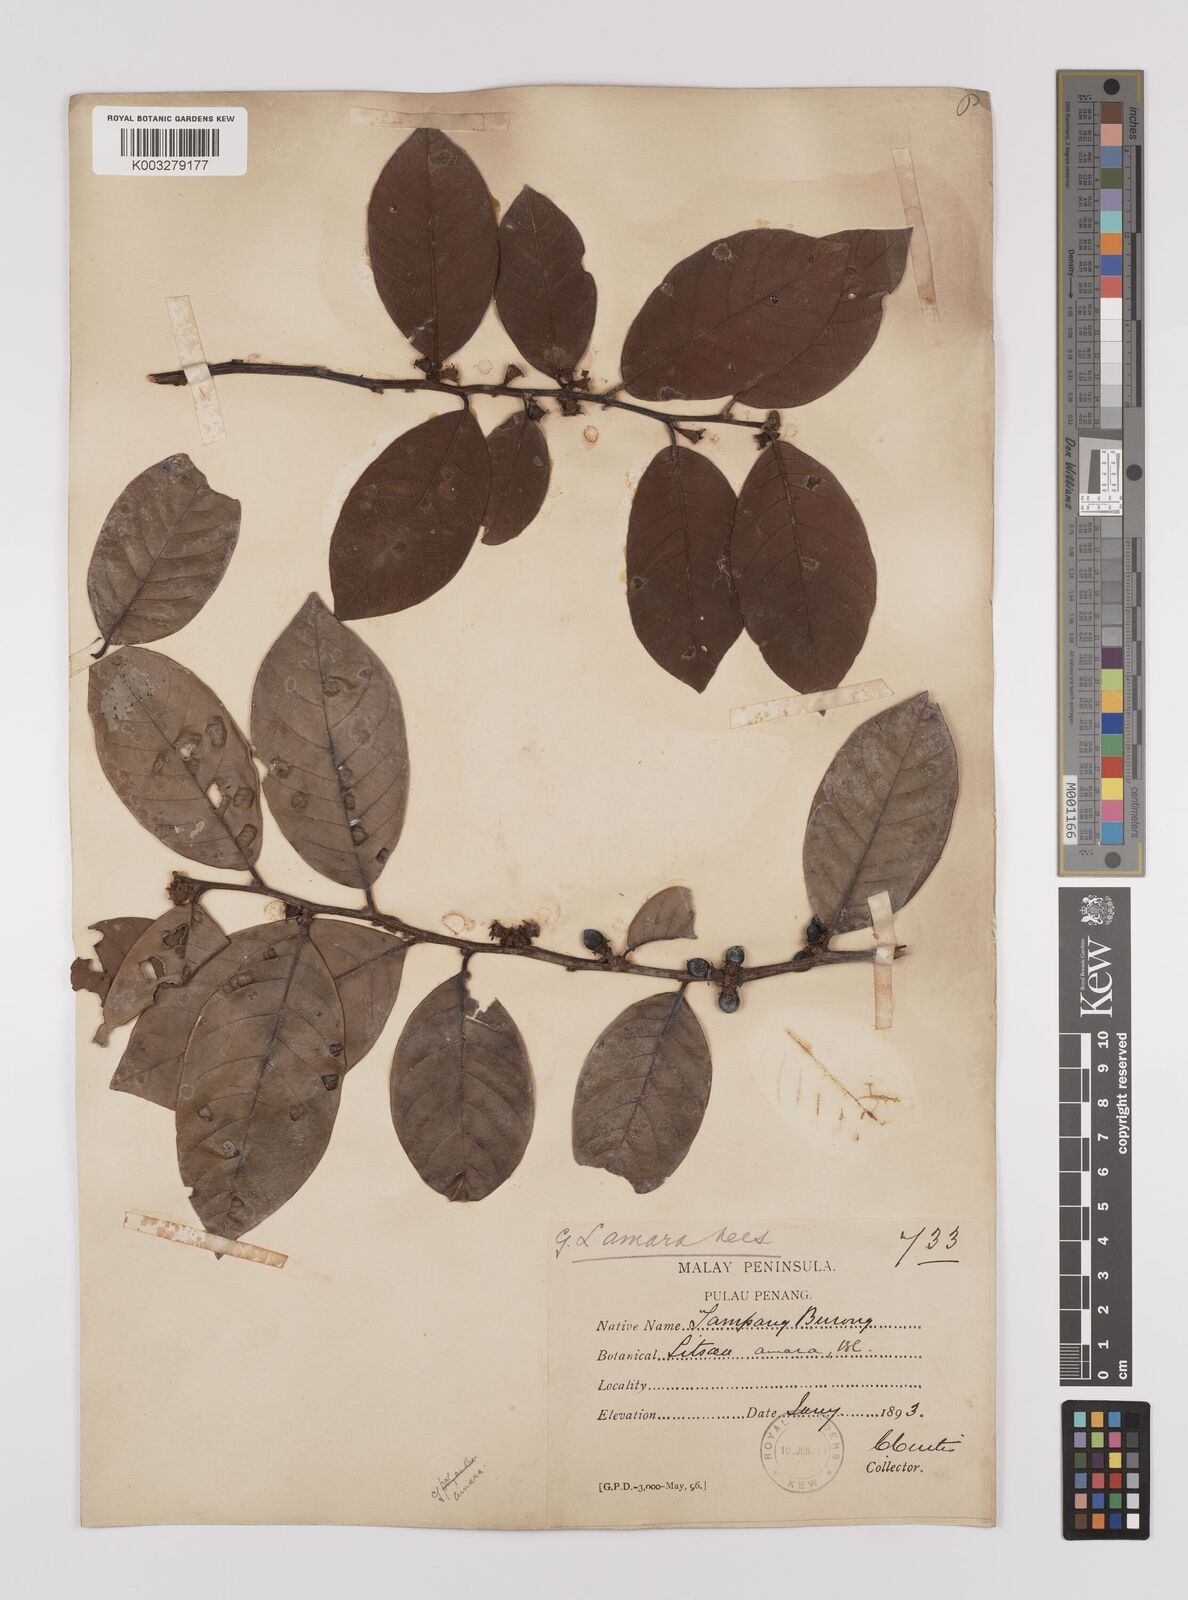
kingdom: Plantae
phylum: Tracheophyta
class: Magnoliopsida
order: Laurales
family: Lauraceae
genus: Litsea
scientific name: Litsea umbellata
